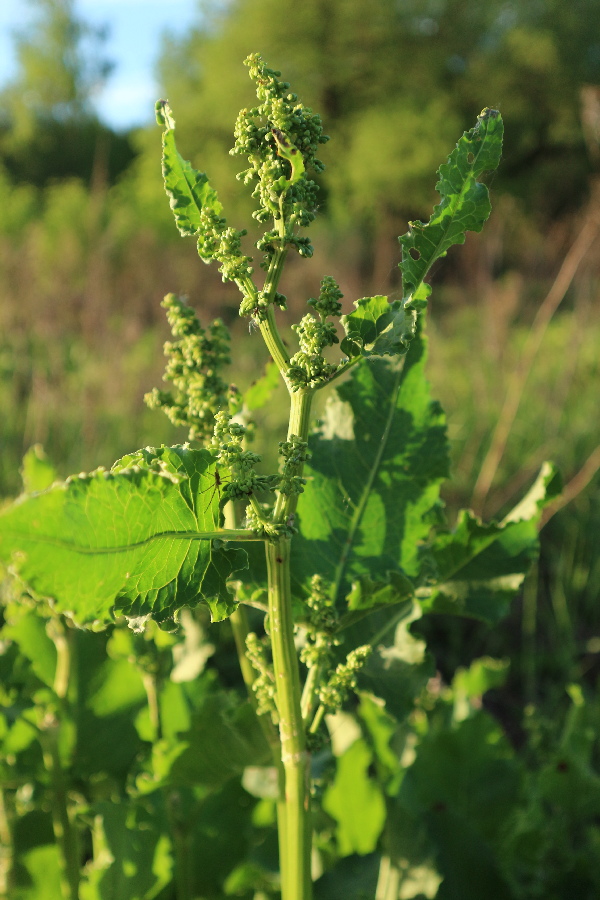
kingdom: Plantae
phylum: Tracheophyta
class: Magnoliopsida
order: Caryophyllales
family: Polygonaceae
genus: Rumex
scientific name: Rumex confertus
